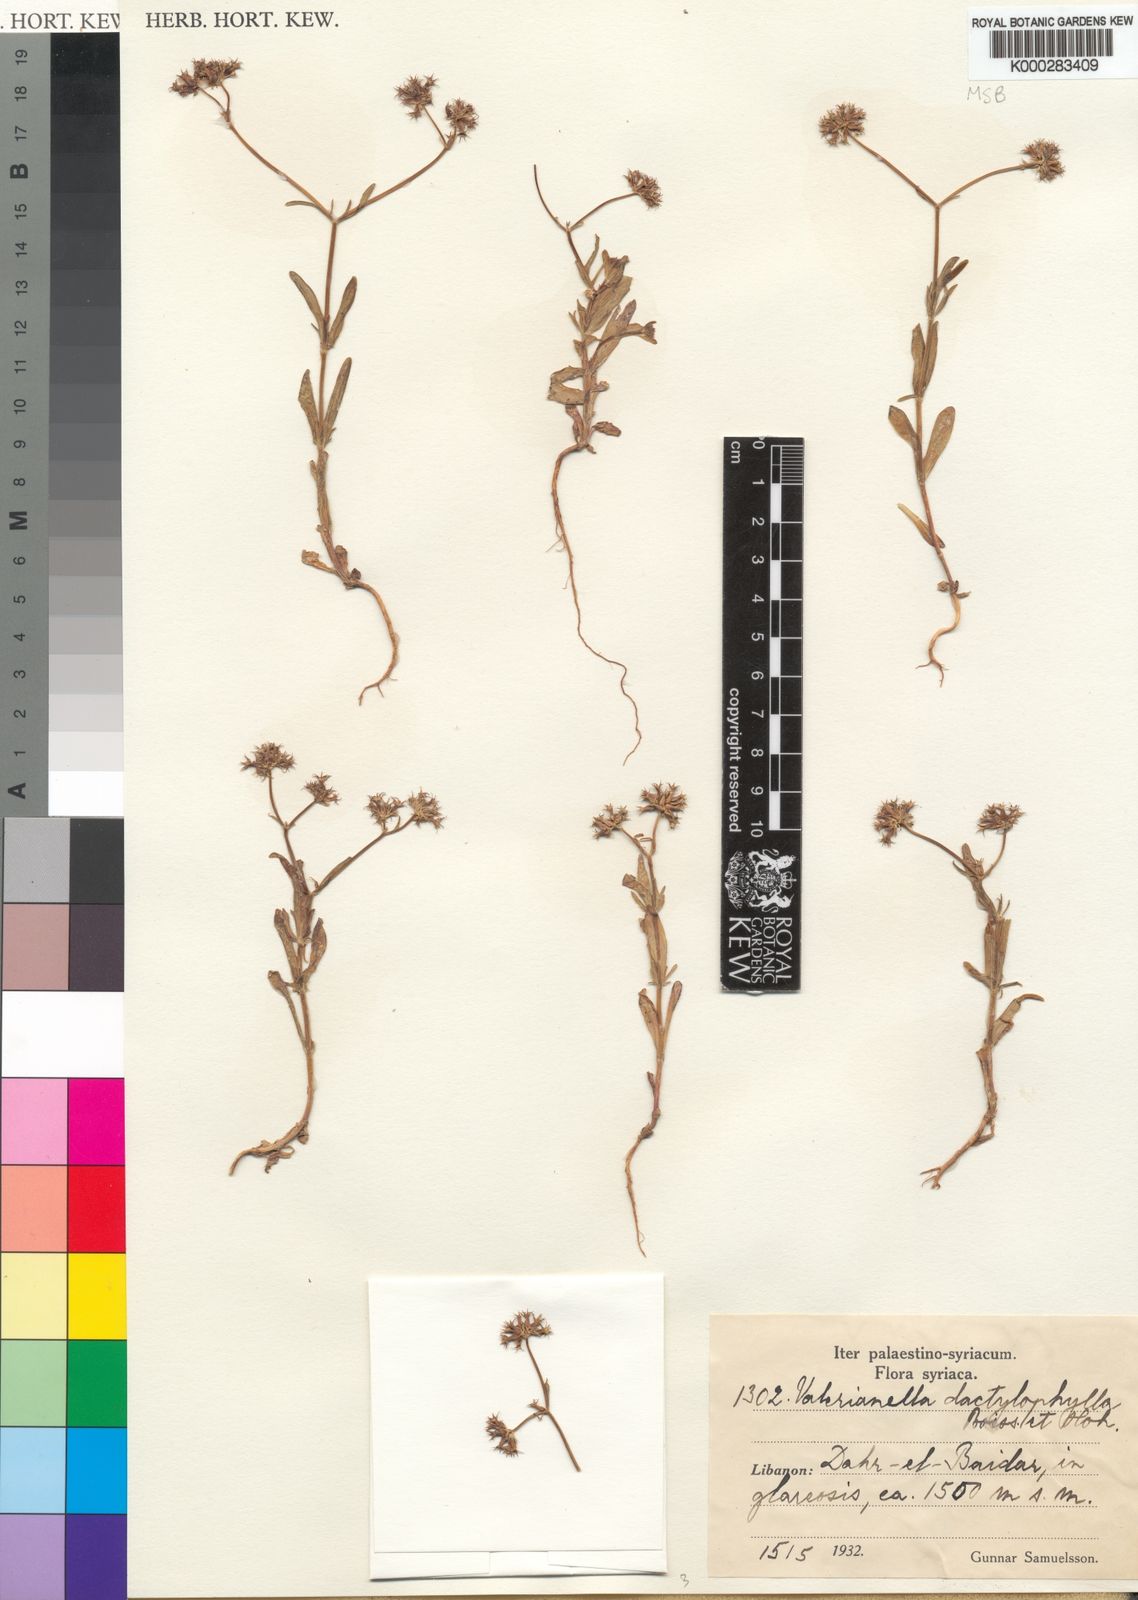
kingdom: Plantae
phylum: Tracheophyta
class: Magnoliopsida
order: Dipsacales
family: Caprifoliaceae
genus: Valerianella
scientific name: Valerianella dactylophylla
